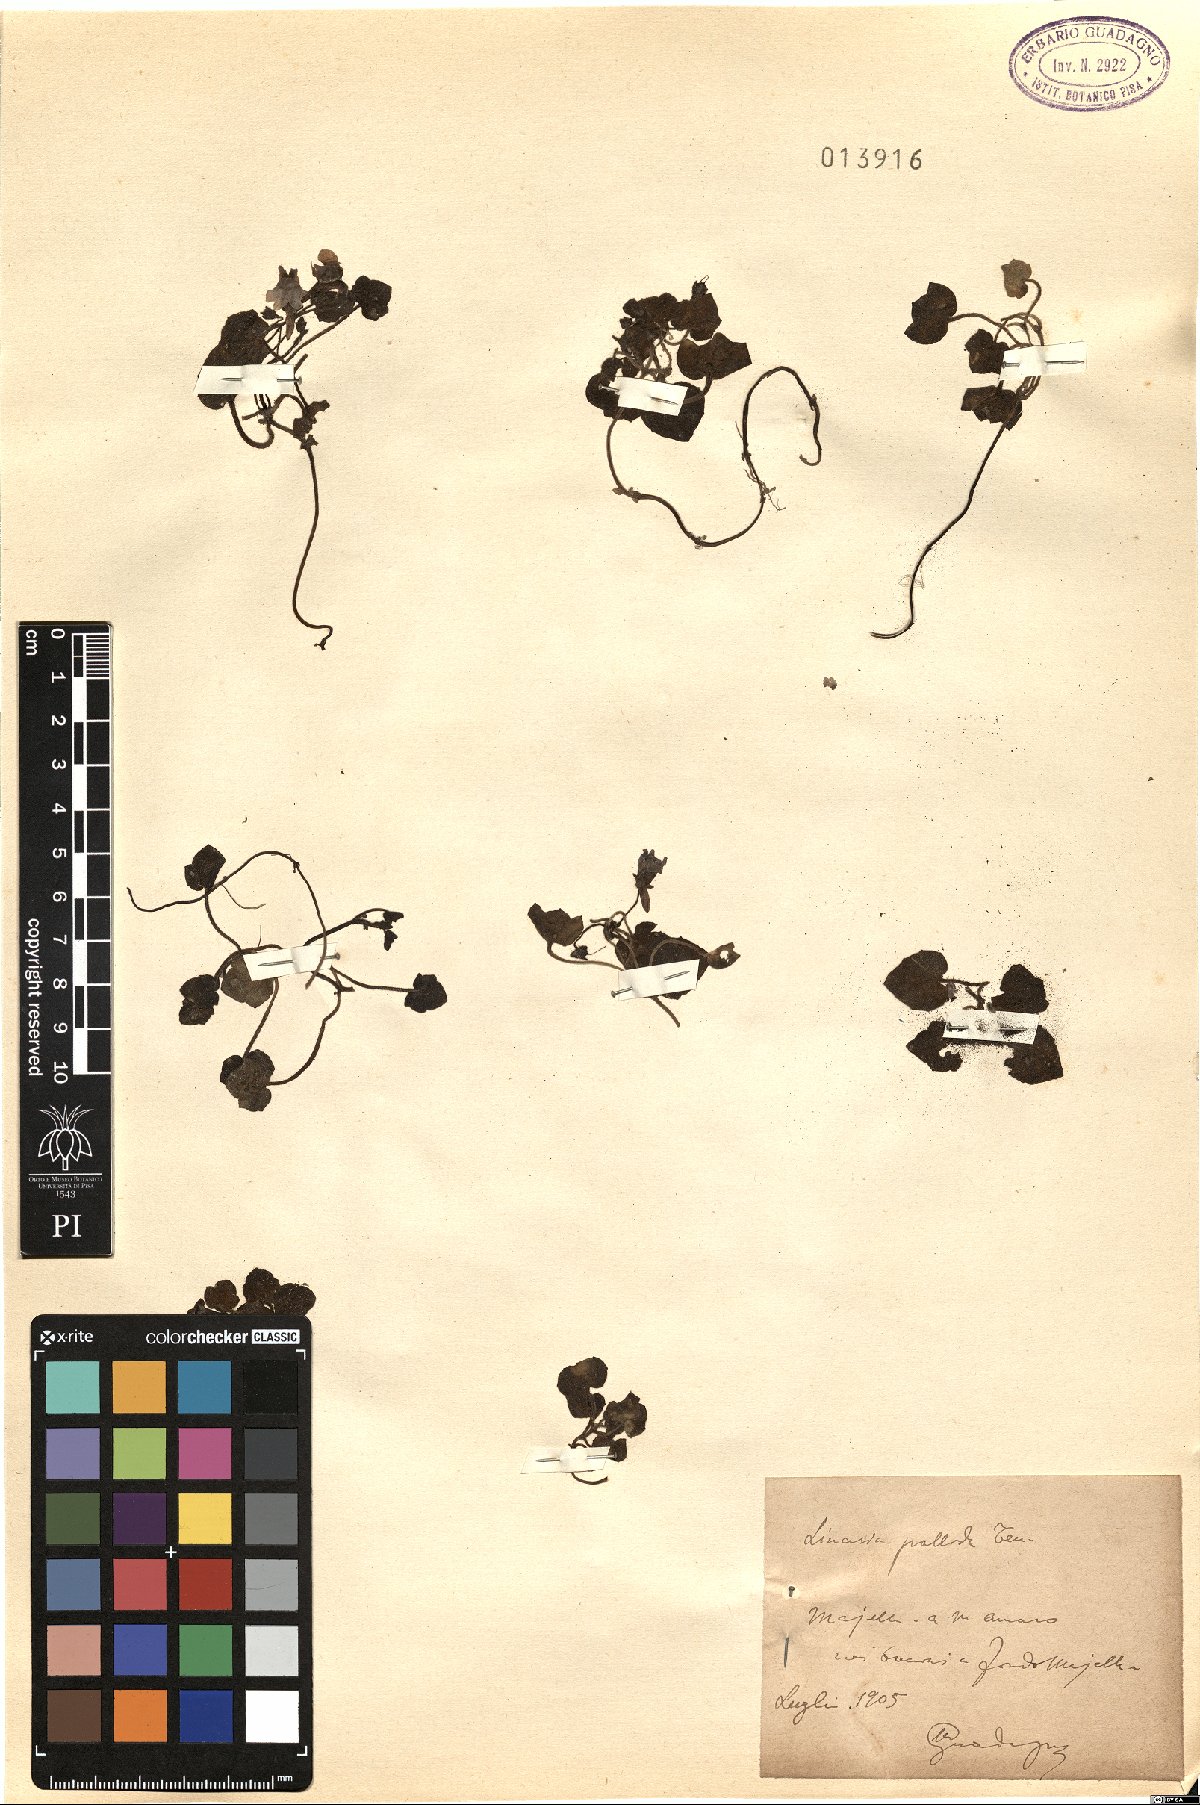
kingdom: Plantae
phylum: Tracheophyta
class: Magnoliopsida
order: Lamiales
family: Plantaginaceae
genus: Cymbalaria
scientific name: Cymbalaria pallida
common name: Italian toadflax
